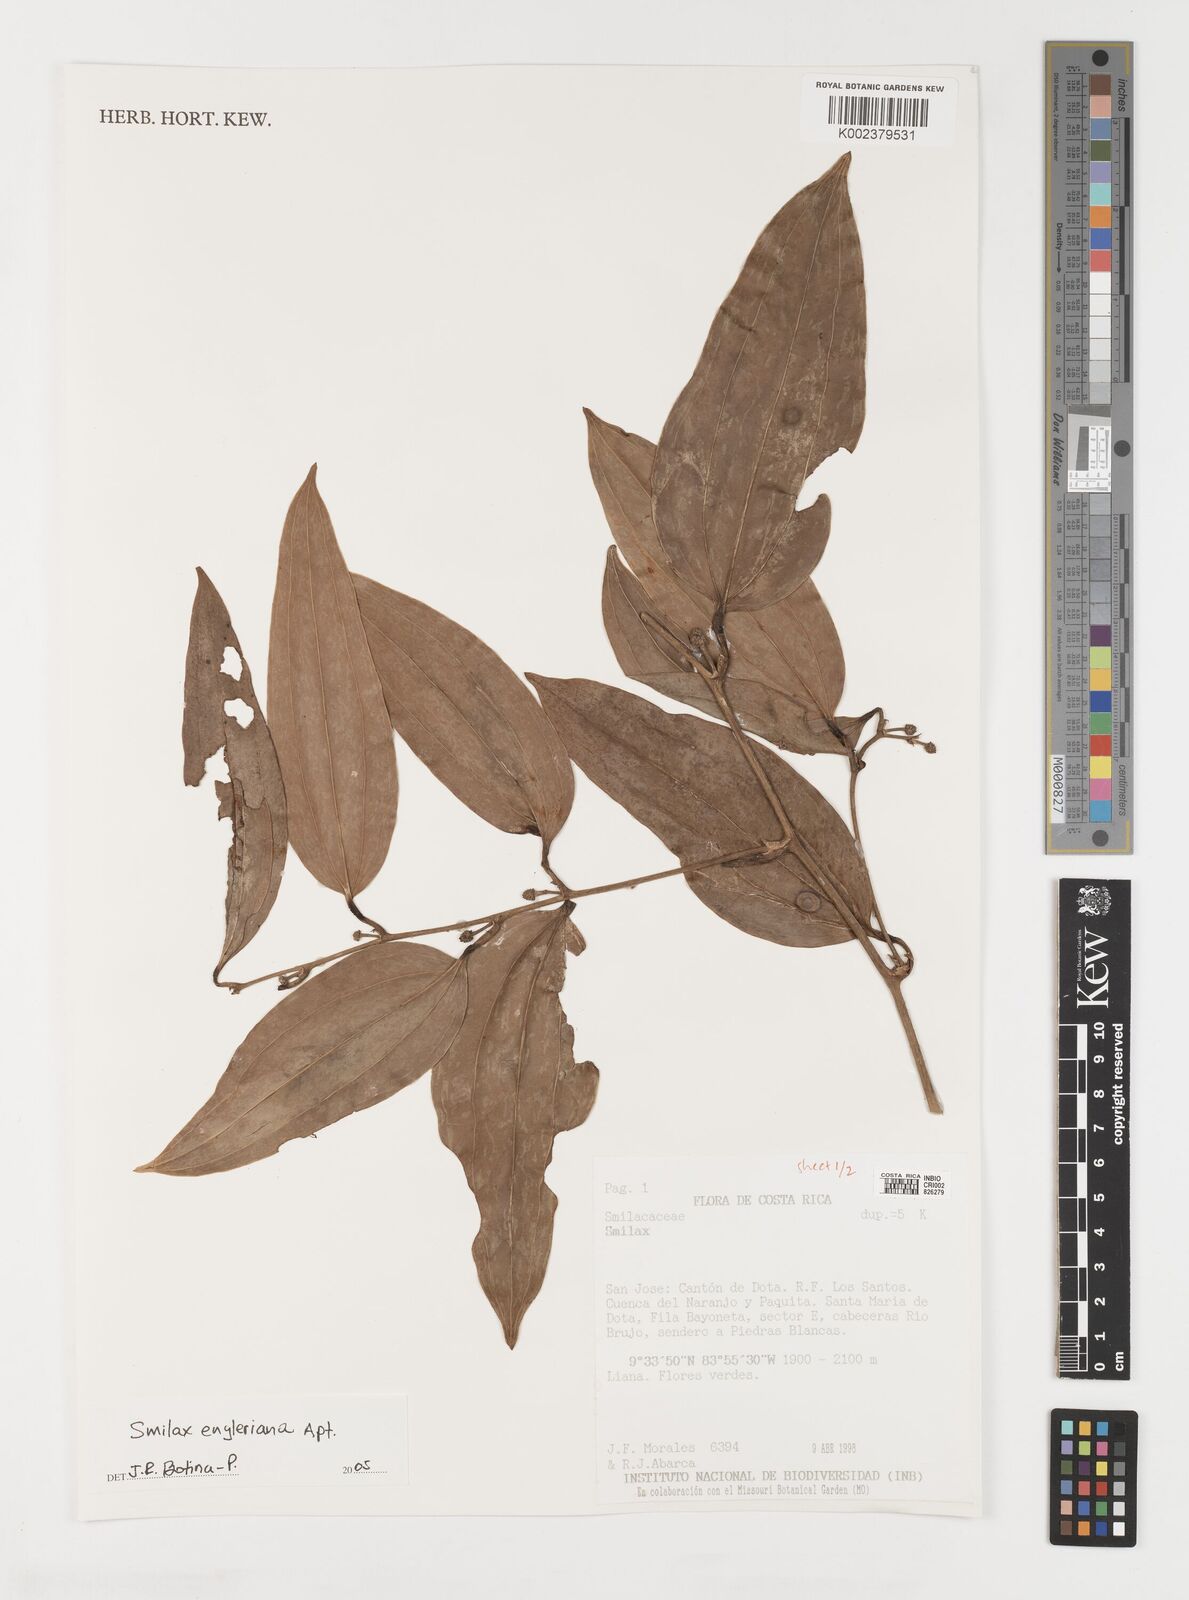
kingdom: Plantae
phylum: Tracheophyta
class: Liliopsida
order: Liliales
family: Smilacaceae
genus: Smilax
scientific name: Smilax domingensis
